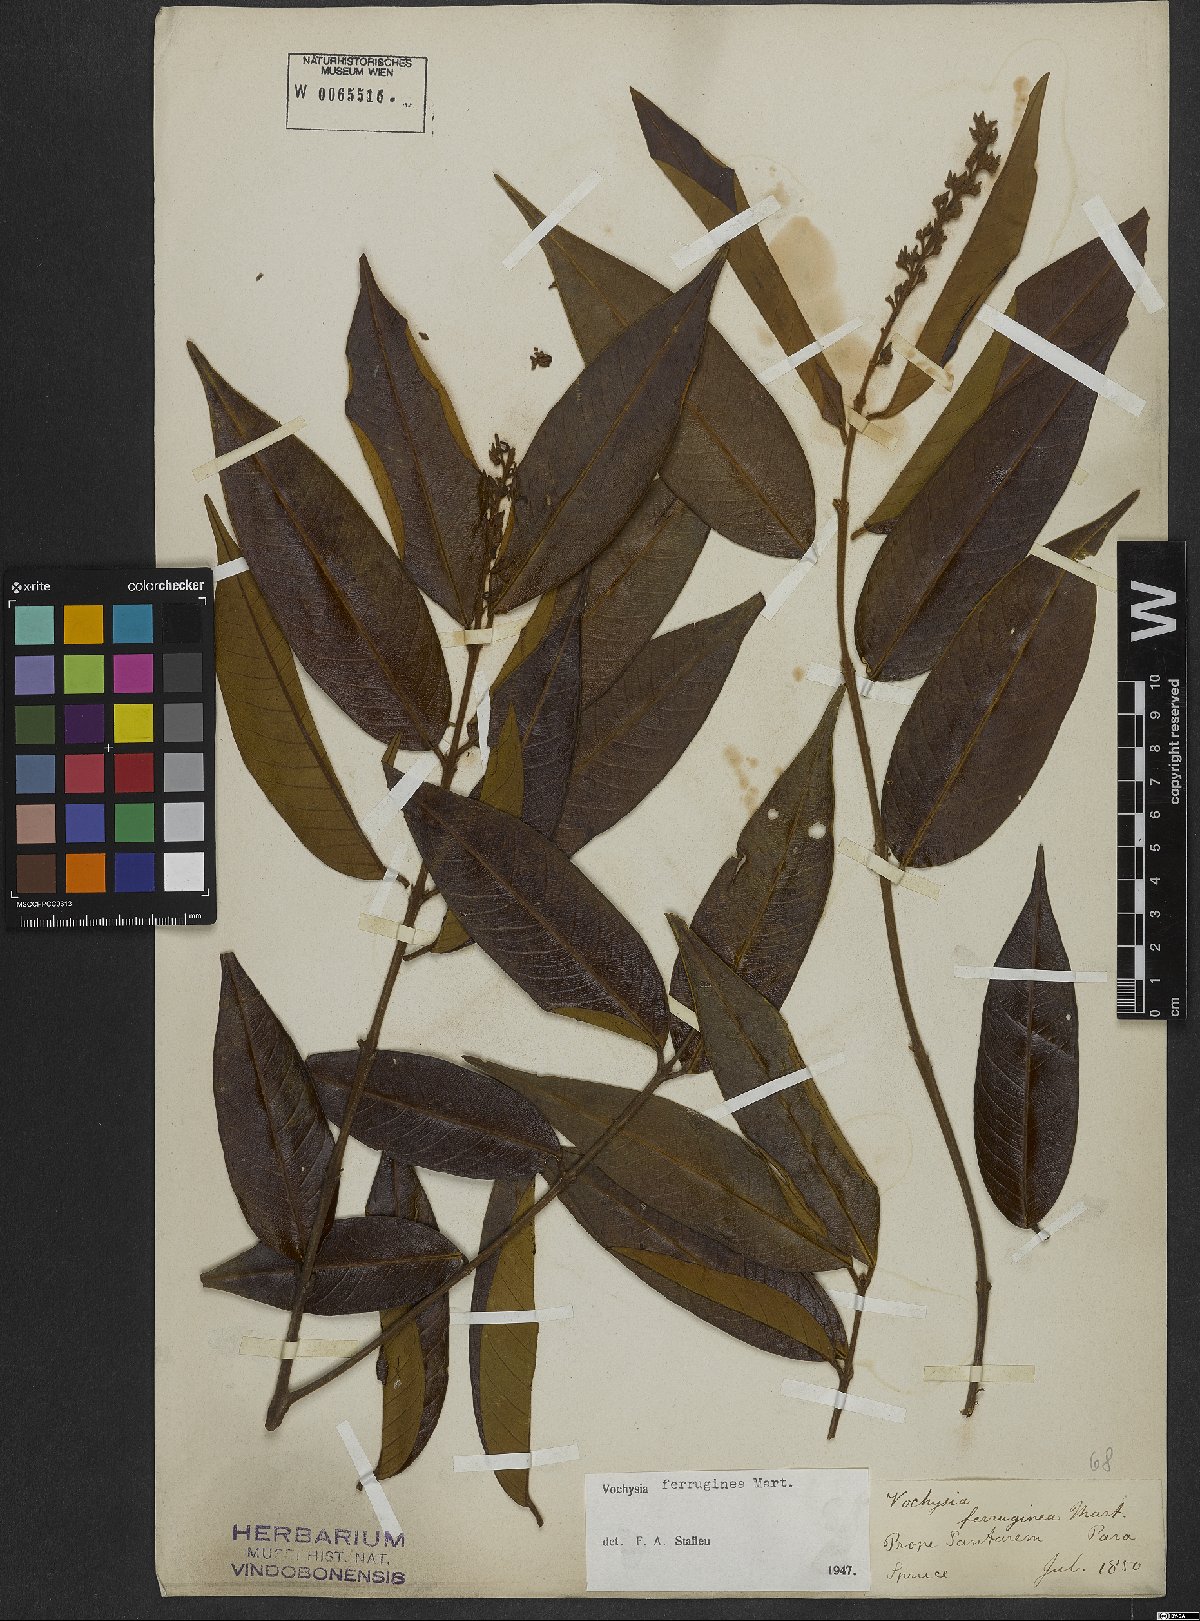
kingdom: Plantae
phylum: Tracheophyta
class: Magnoliopsida
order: Myrtales
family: Vochysiaceae
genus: Vochysia
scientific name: Vochysia ferruginea
